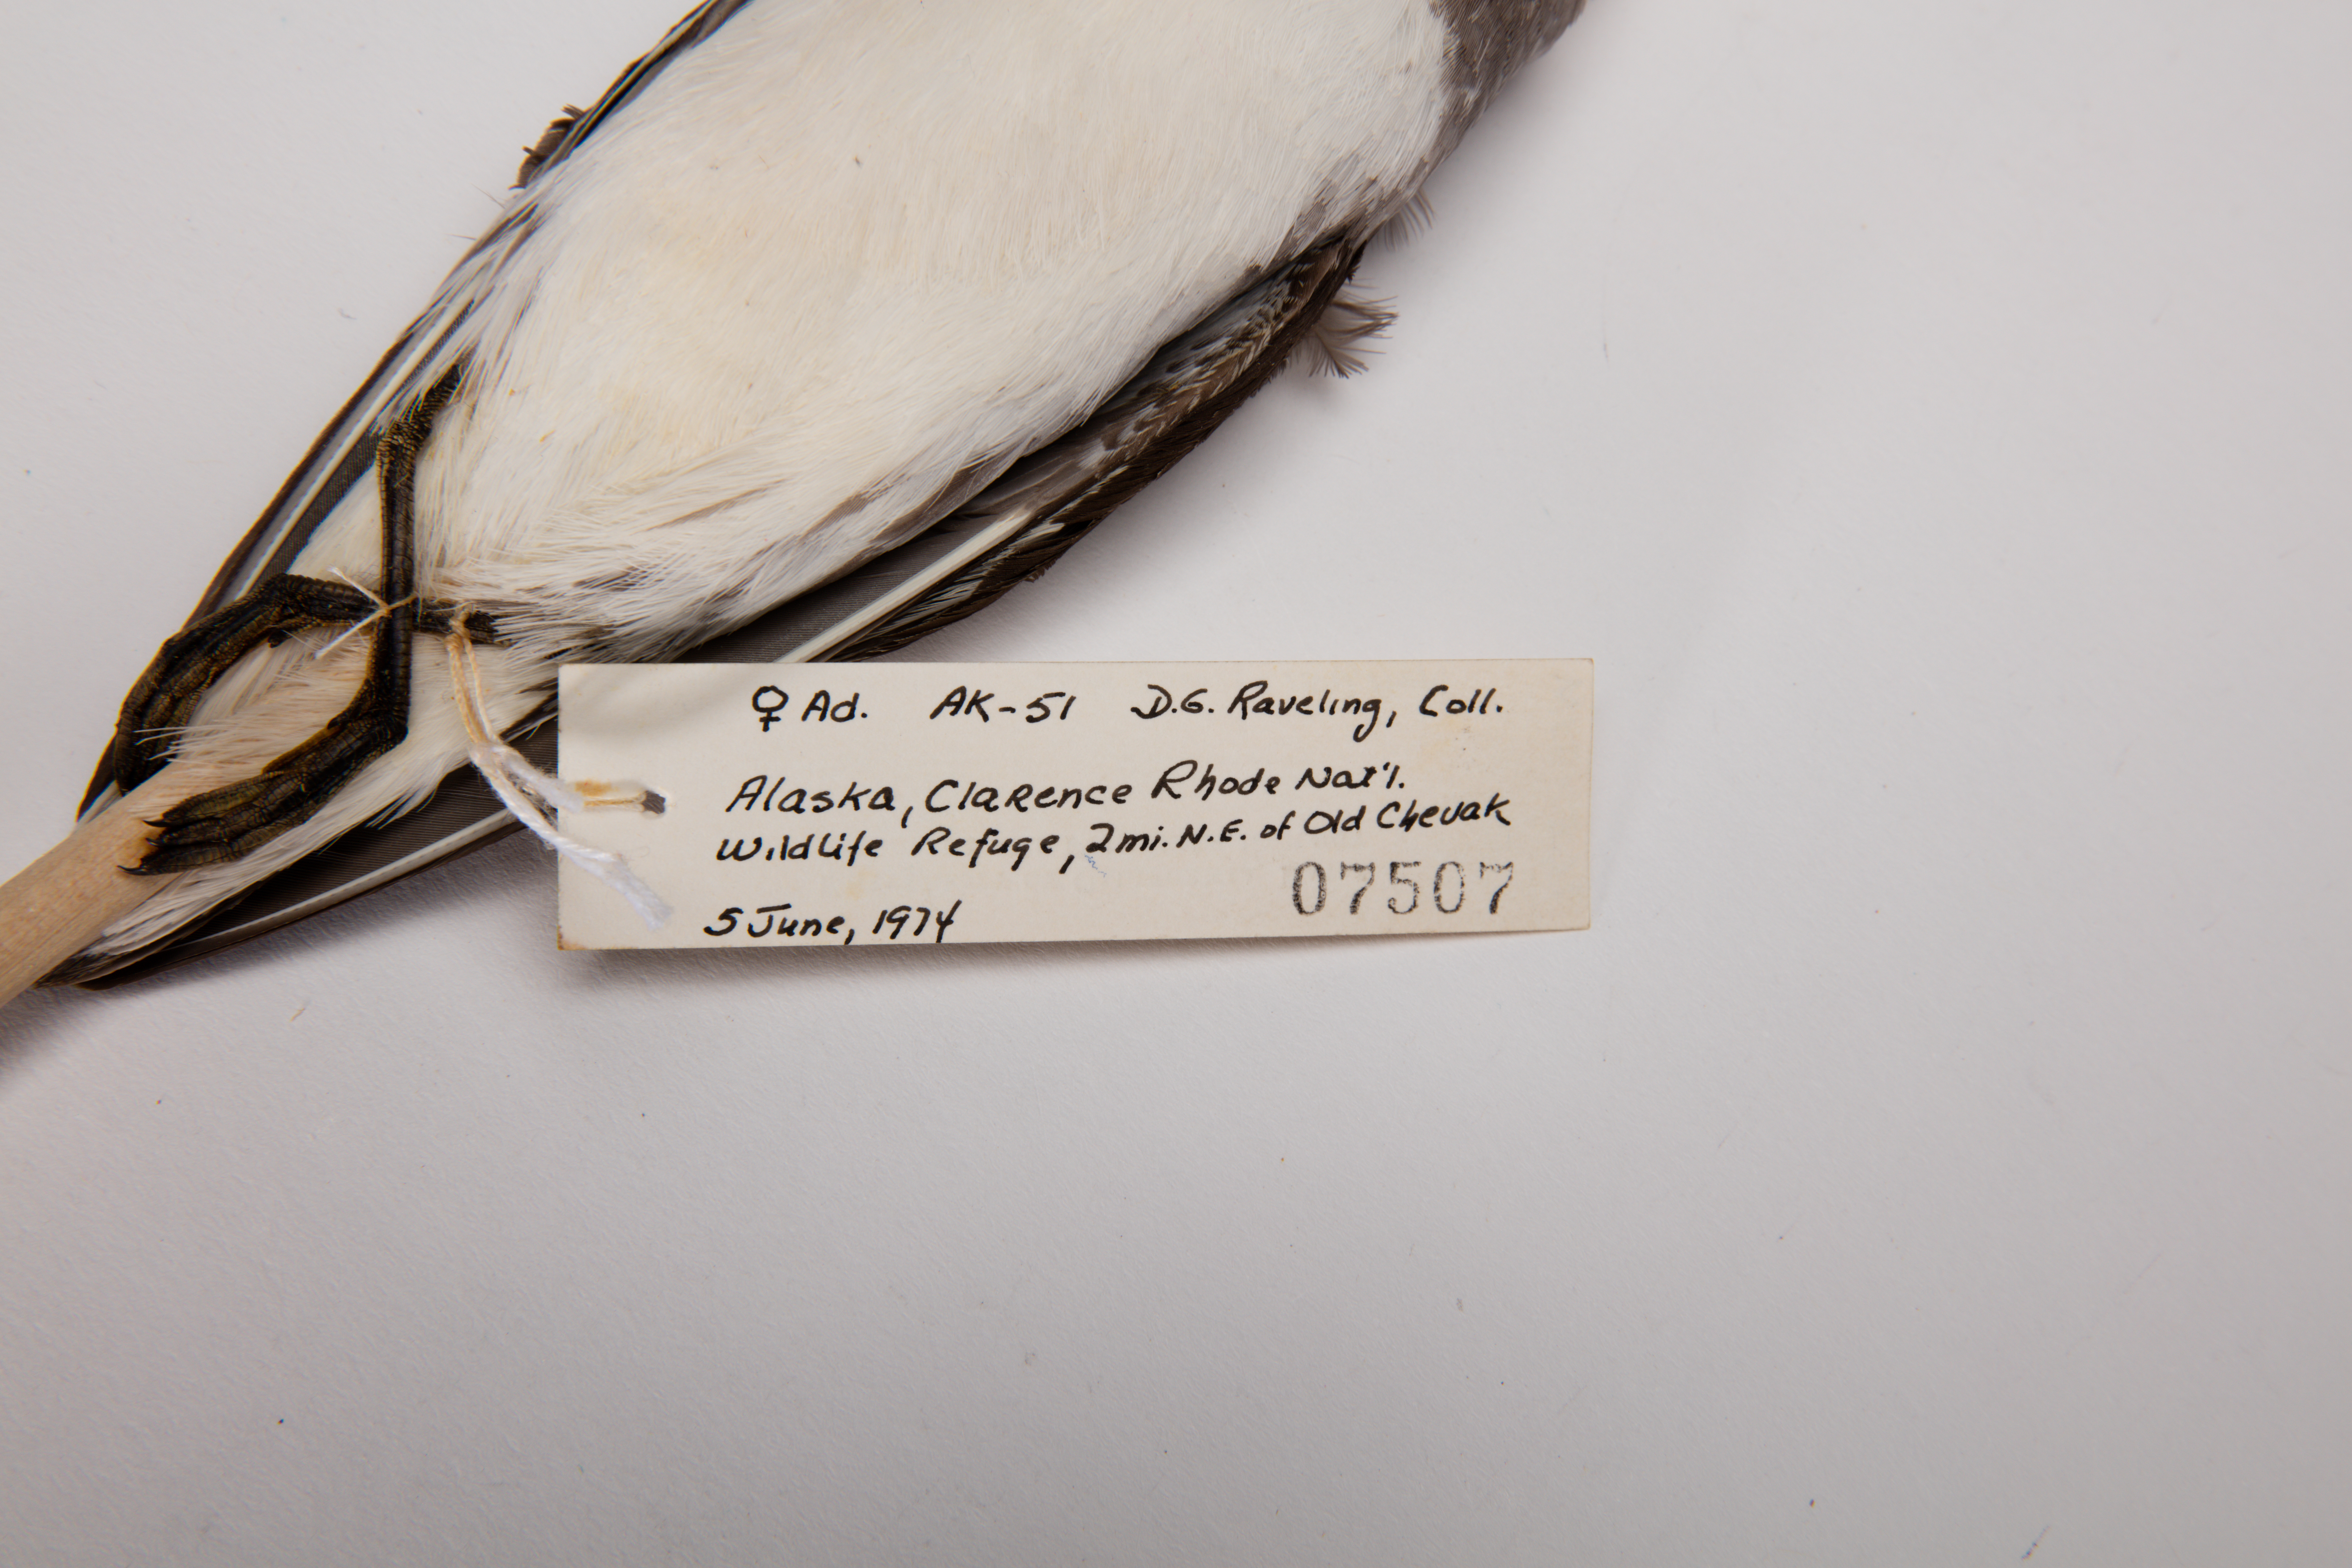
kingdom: Animalia
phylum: Chordata
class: Aves
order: Charadriiformes
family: Scolopacidae
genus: Phalaropus
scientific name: Phalaropus lobatus
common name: Red-necked phalarope
